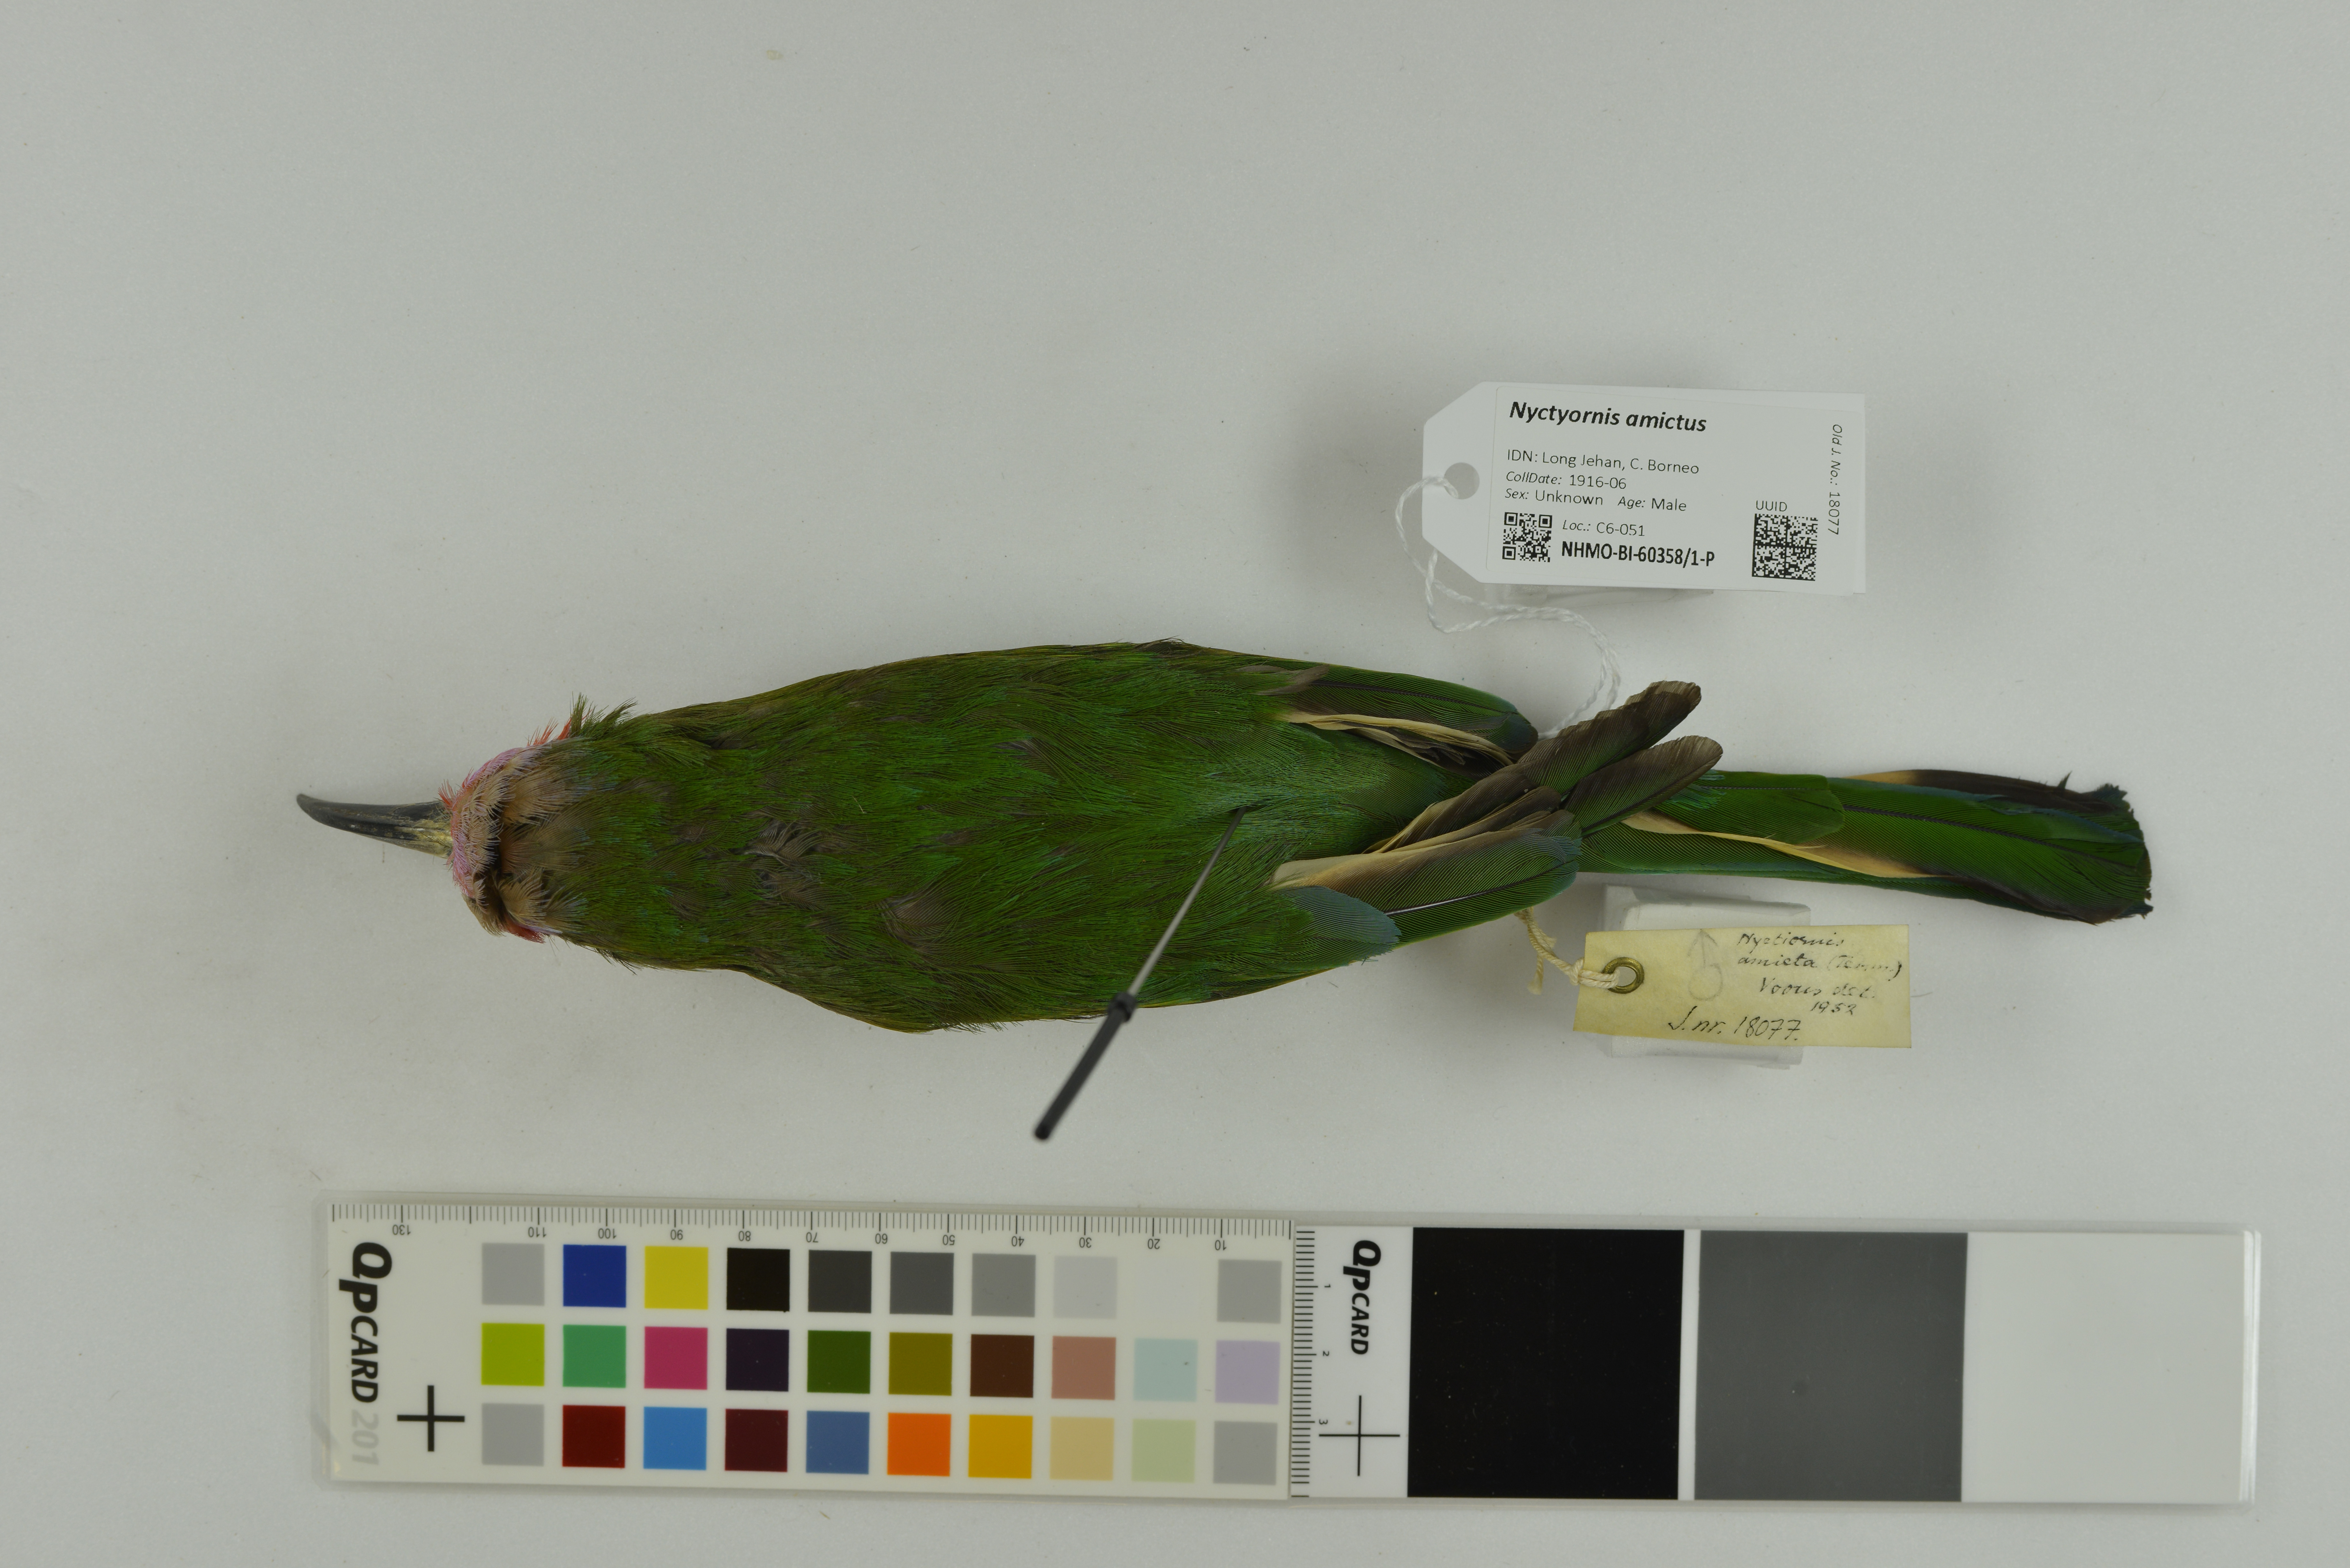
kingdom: Animalia
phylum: Chordata
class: Aves
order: Coraciiformes
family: Meropidae
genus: Nyctyornis
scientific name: Nyctyornis amictus
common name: Red-bearded bee-eater
